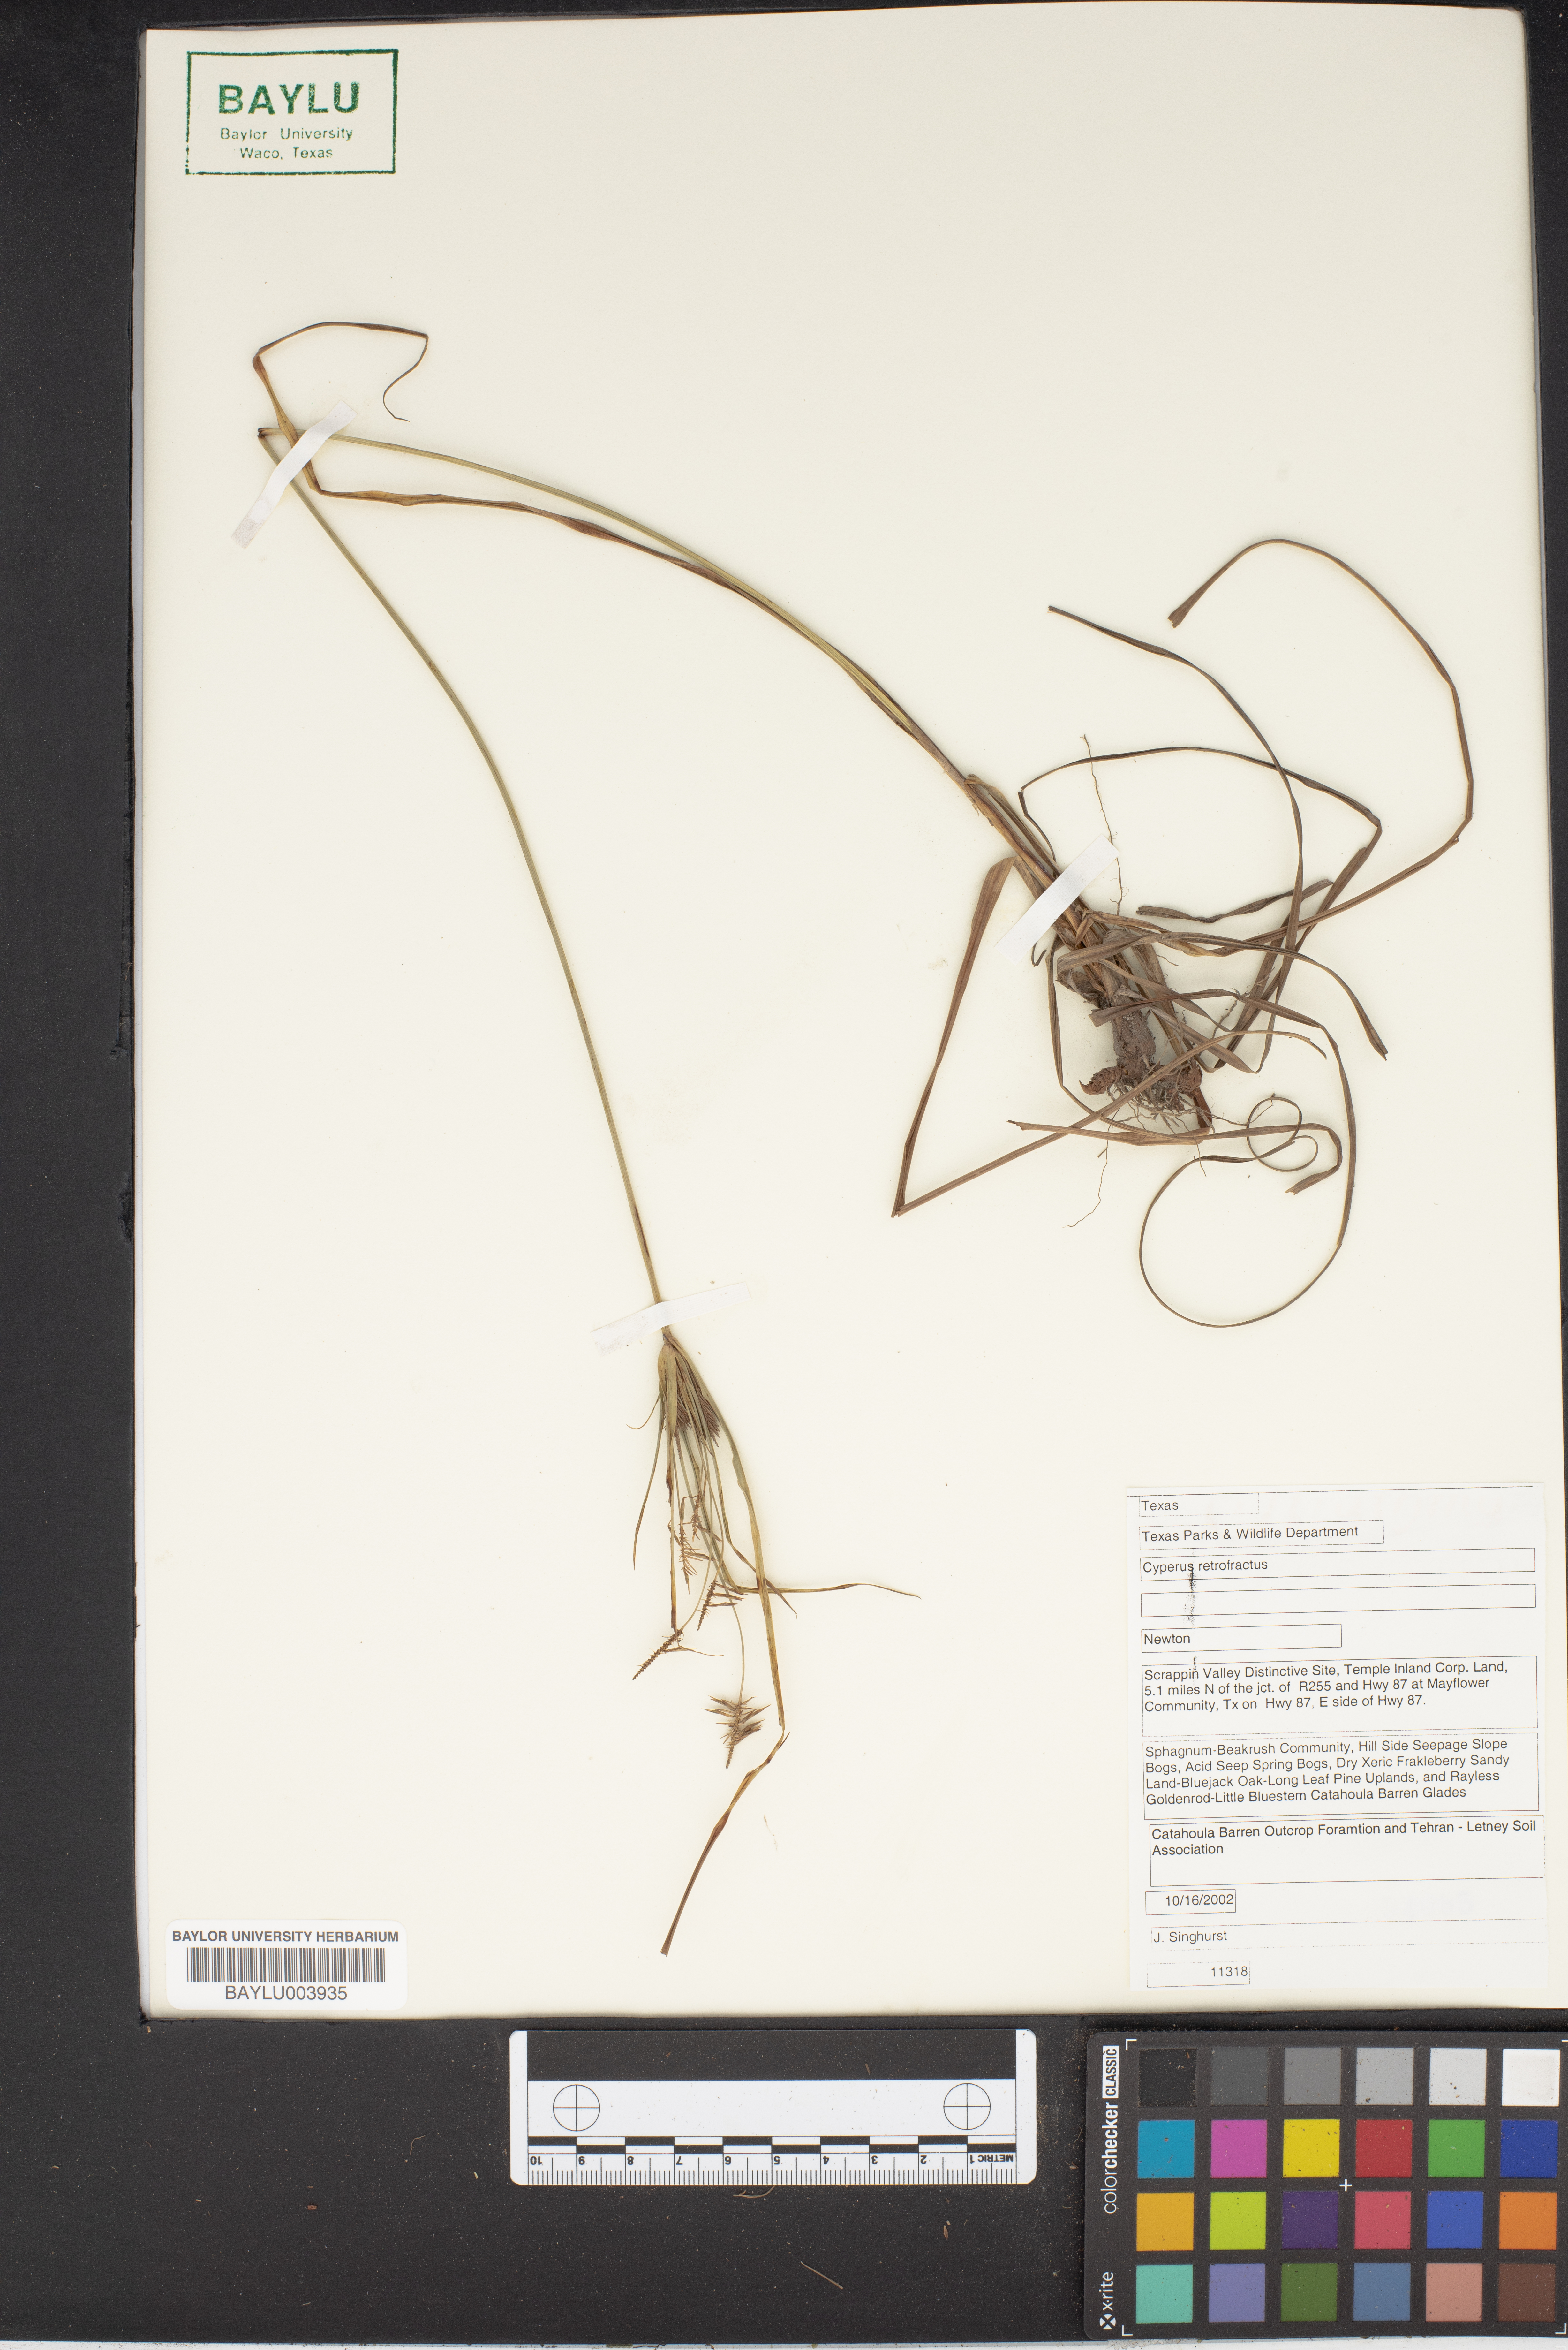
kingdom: Plantae
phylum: Tracheophyta
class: Liliopsida
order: Poales
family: Cyperaceae
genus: Cyperus
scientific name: Cyperus retrofractus
